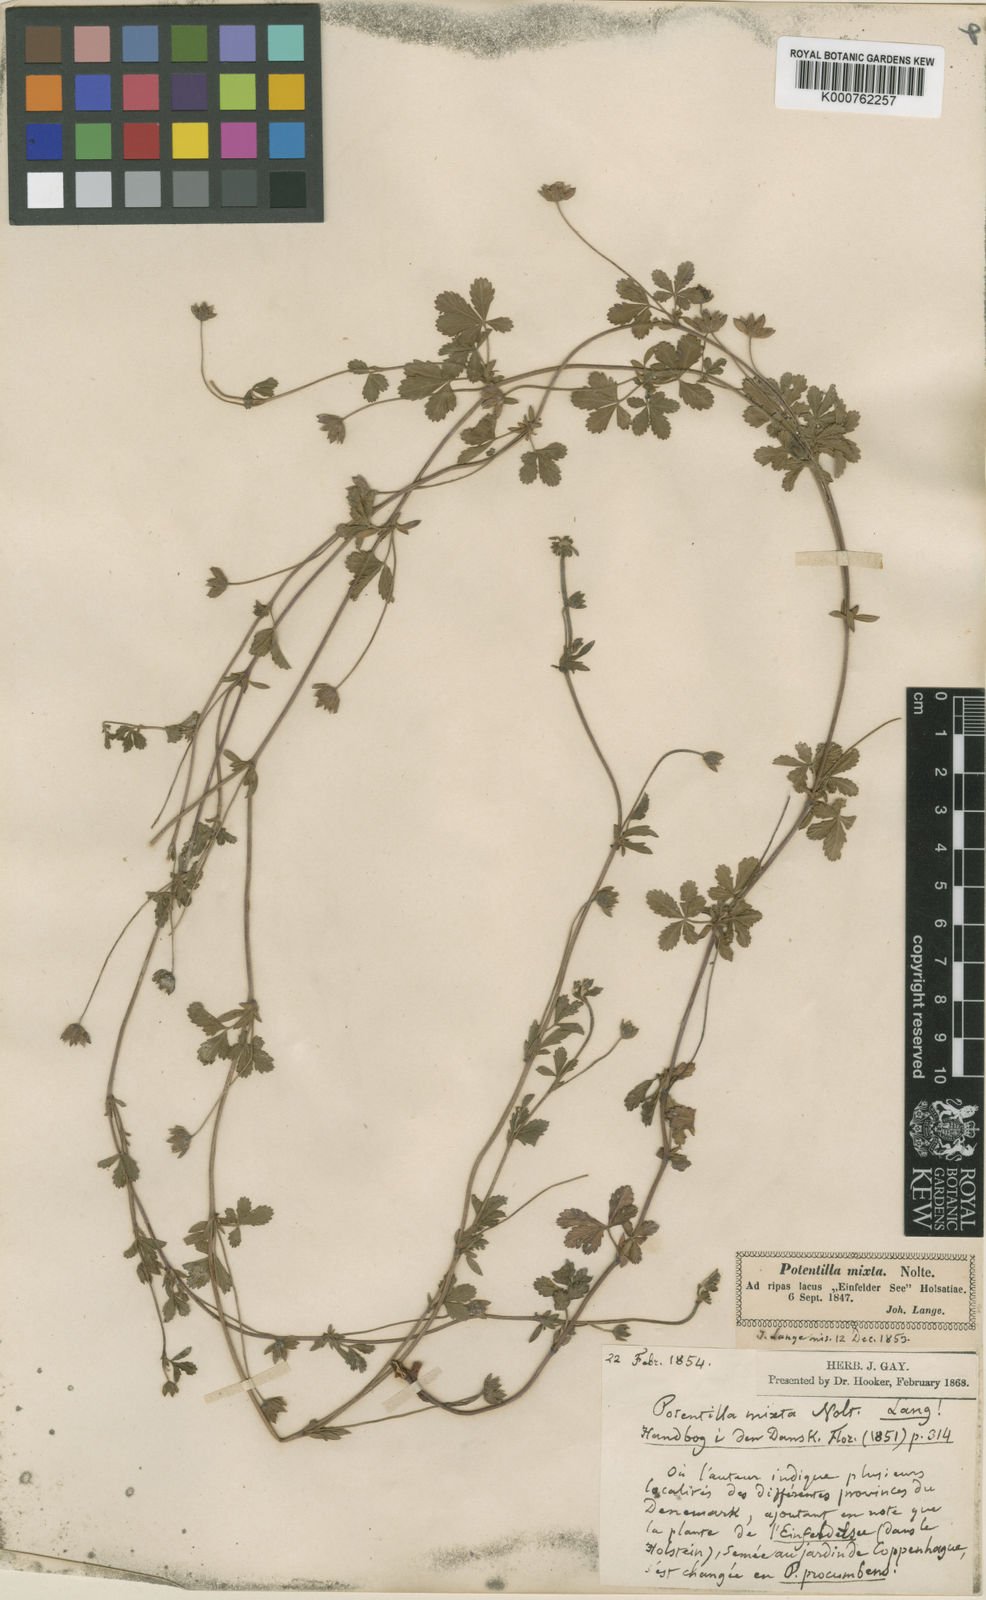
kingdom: Plantae
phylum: Tracheophyta
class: Magnoliopsida
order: Rosales
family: Rosaceae
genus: Potentilla
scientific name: Potentilla reptans
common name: Creeping cinquefoil
